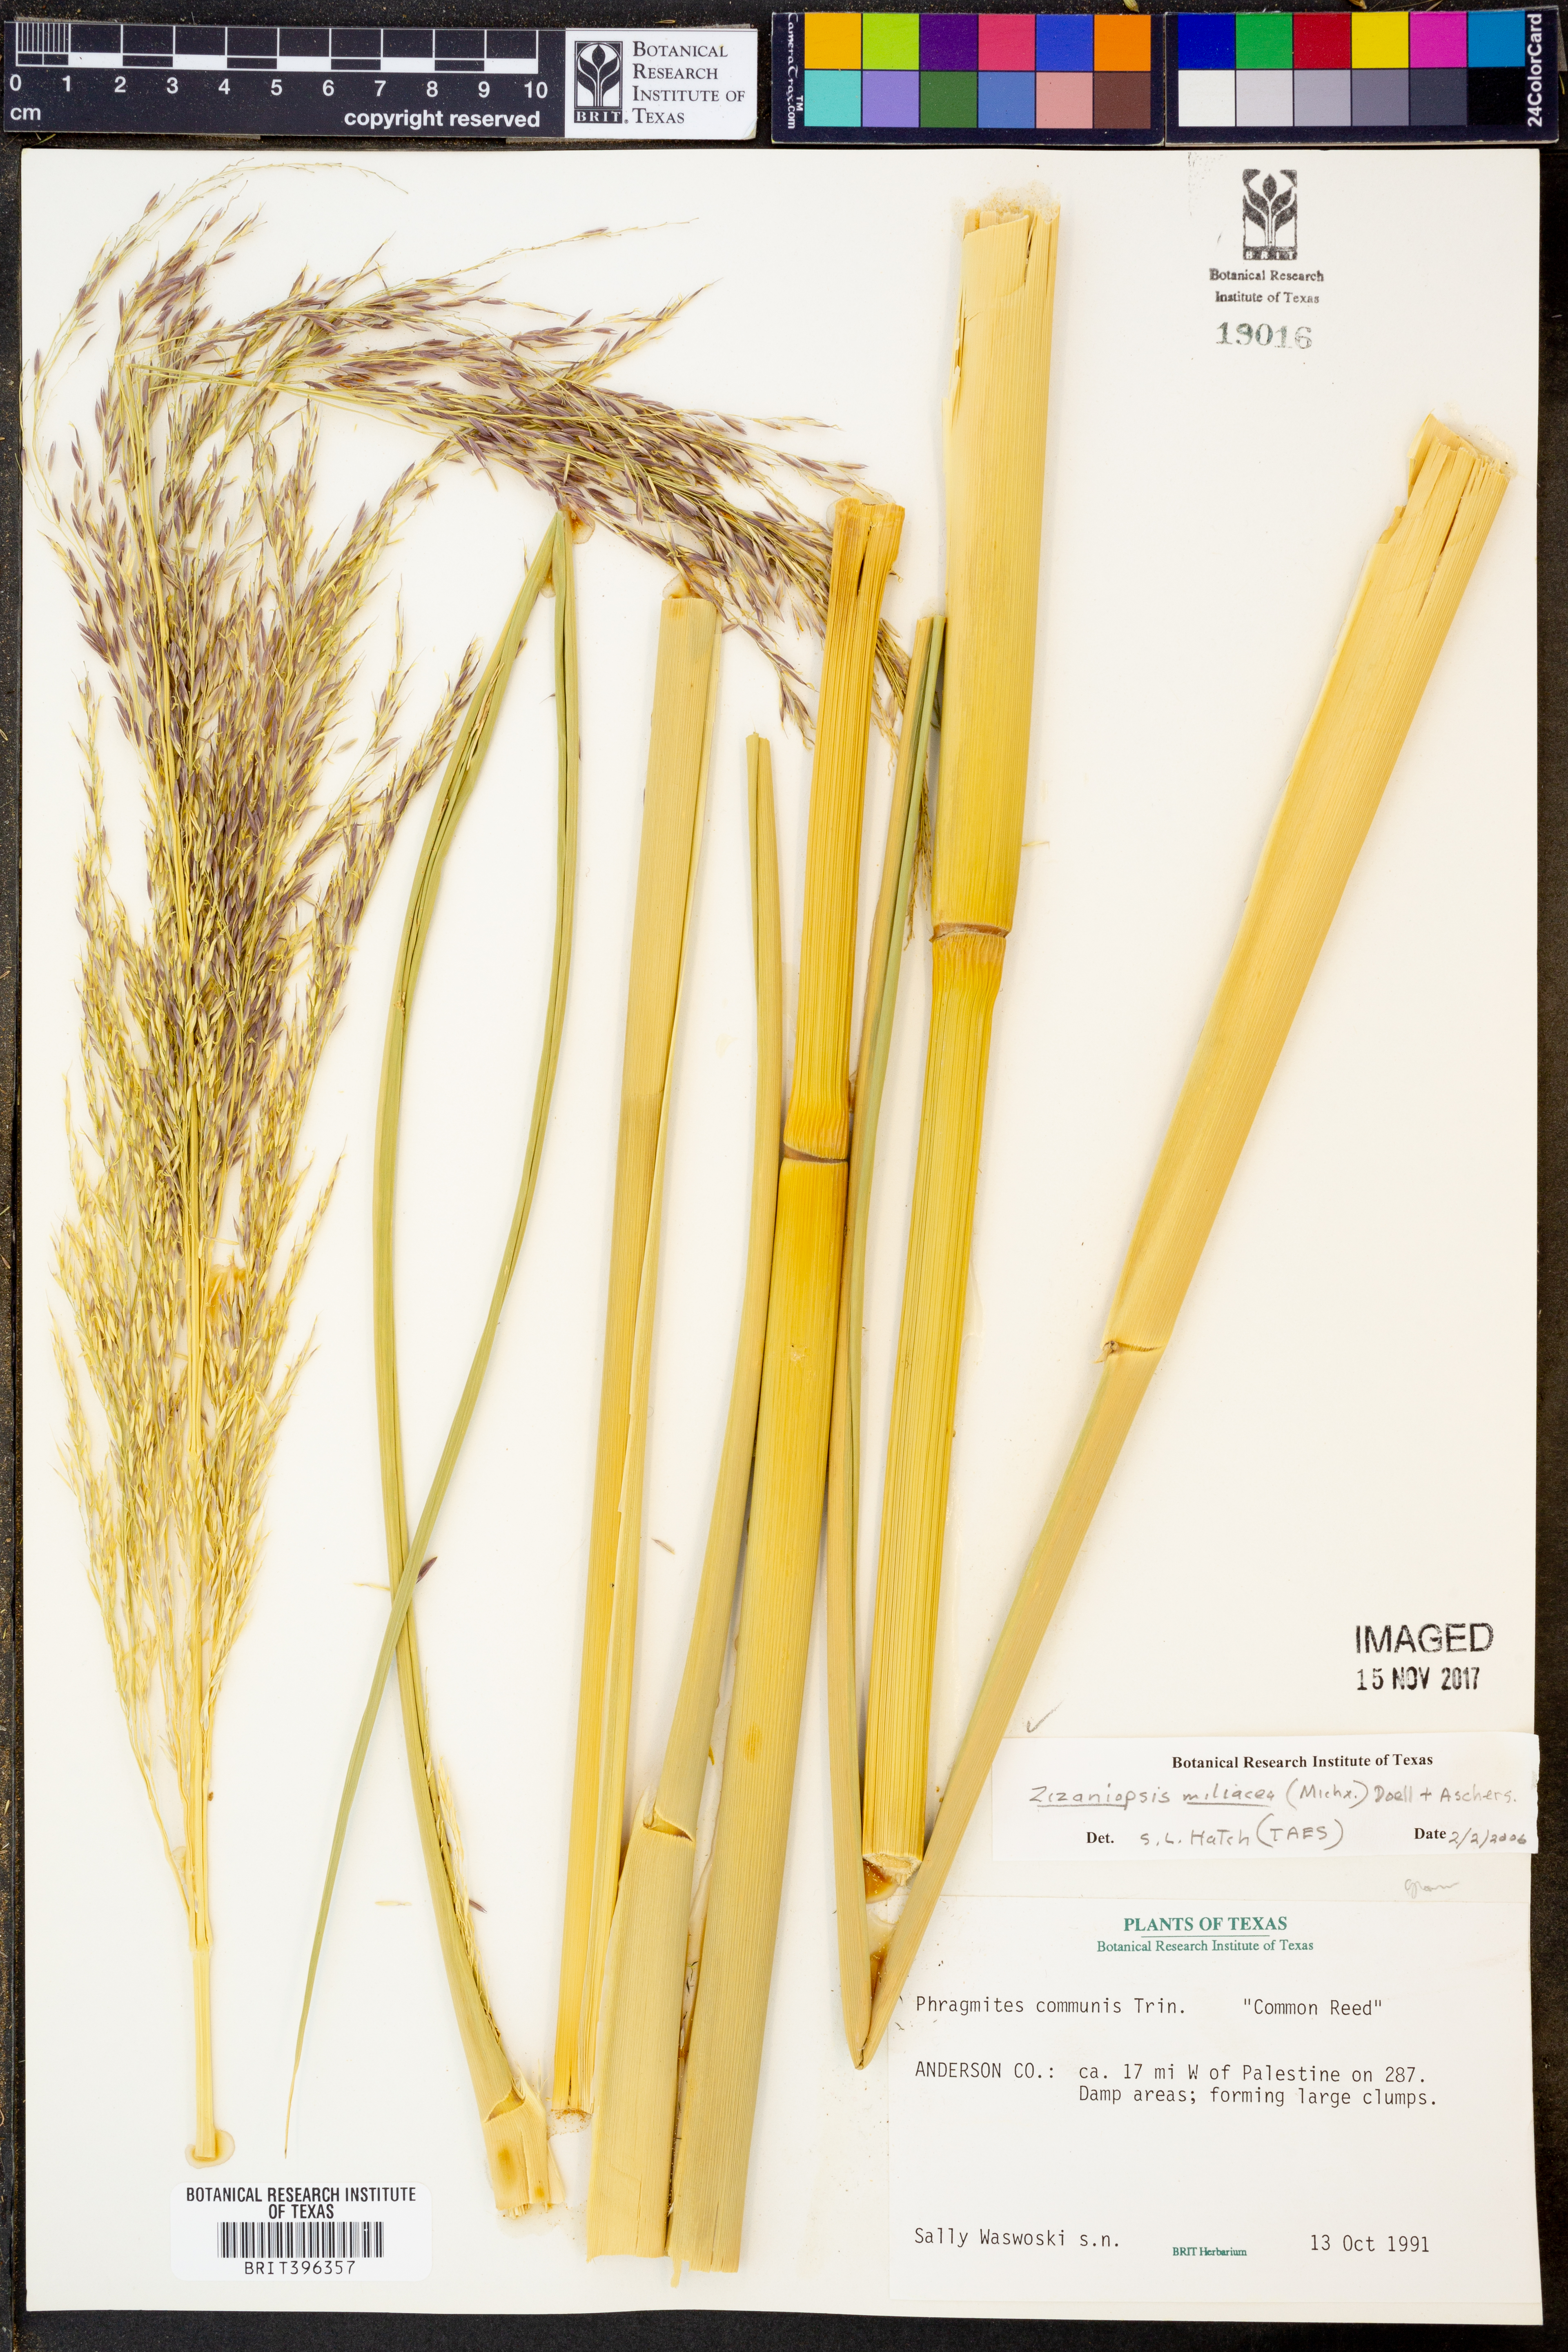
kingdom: Plantae
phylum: Tracheophyta
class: Liliopsida
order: Poales
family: Poaceae
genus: Zizaniopsis
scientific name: Zizaniopsis miliacea
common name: Giant-cutgrass
